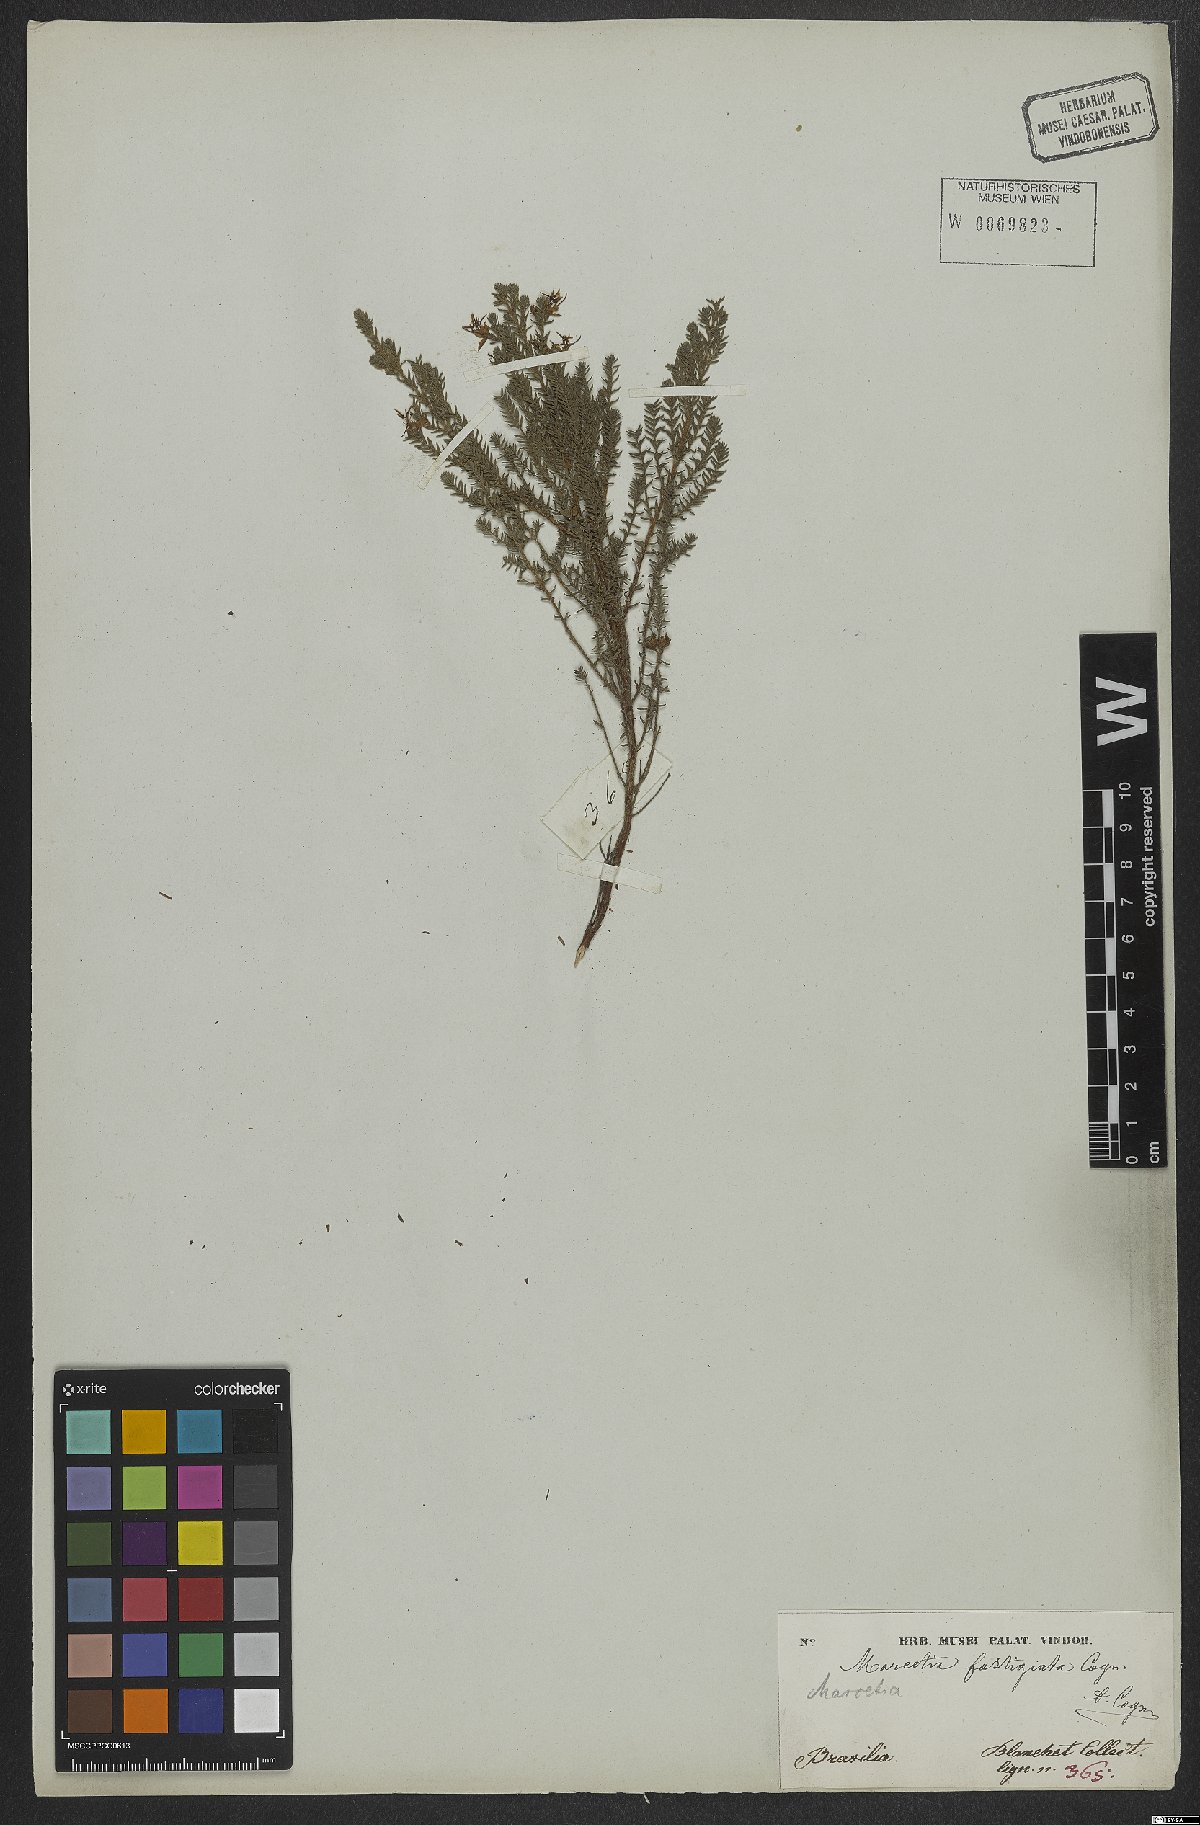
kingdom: Plantae
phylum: Tracheophyta
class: Magnoliopsida
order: Myrtales
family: Melastomataceae
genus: Marcetia
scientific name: Marcetia taxifolia
